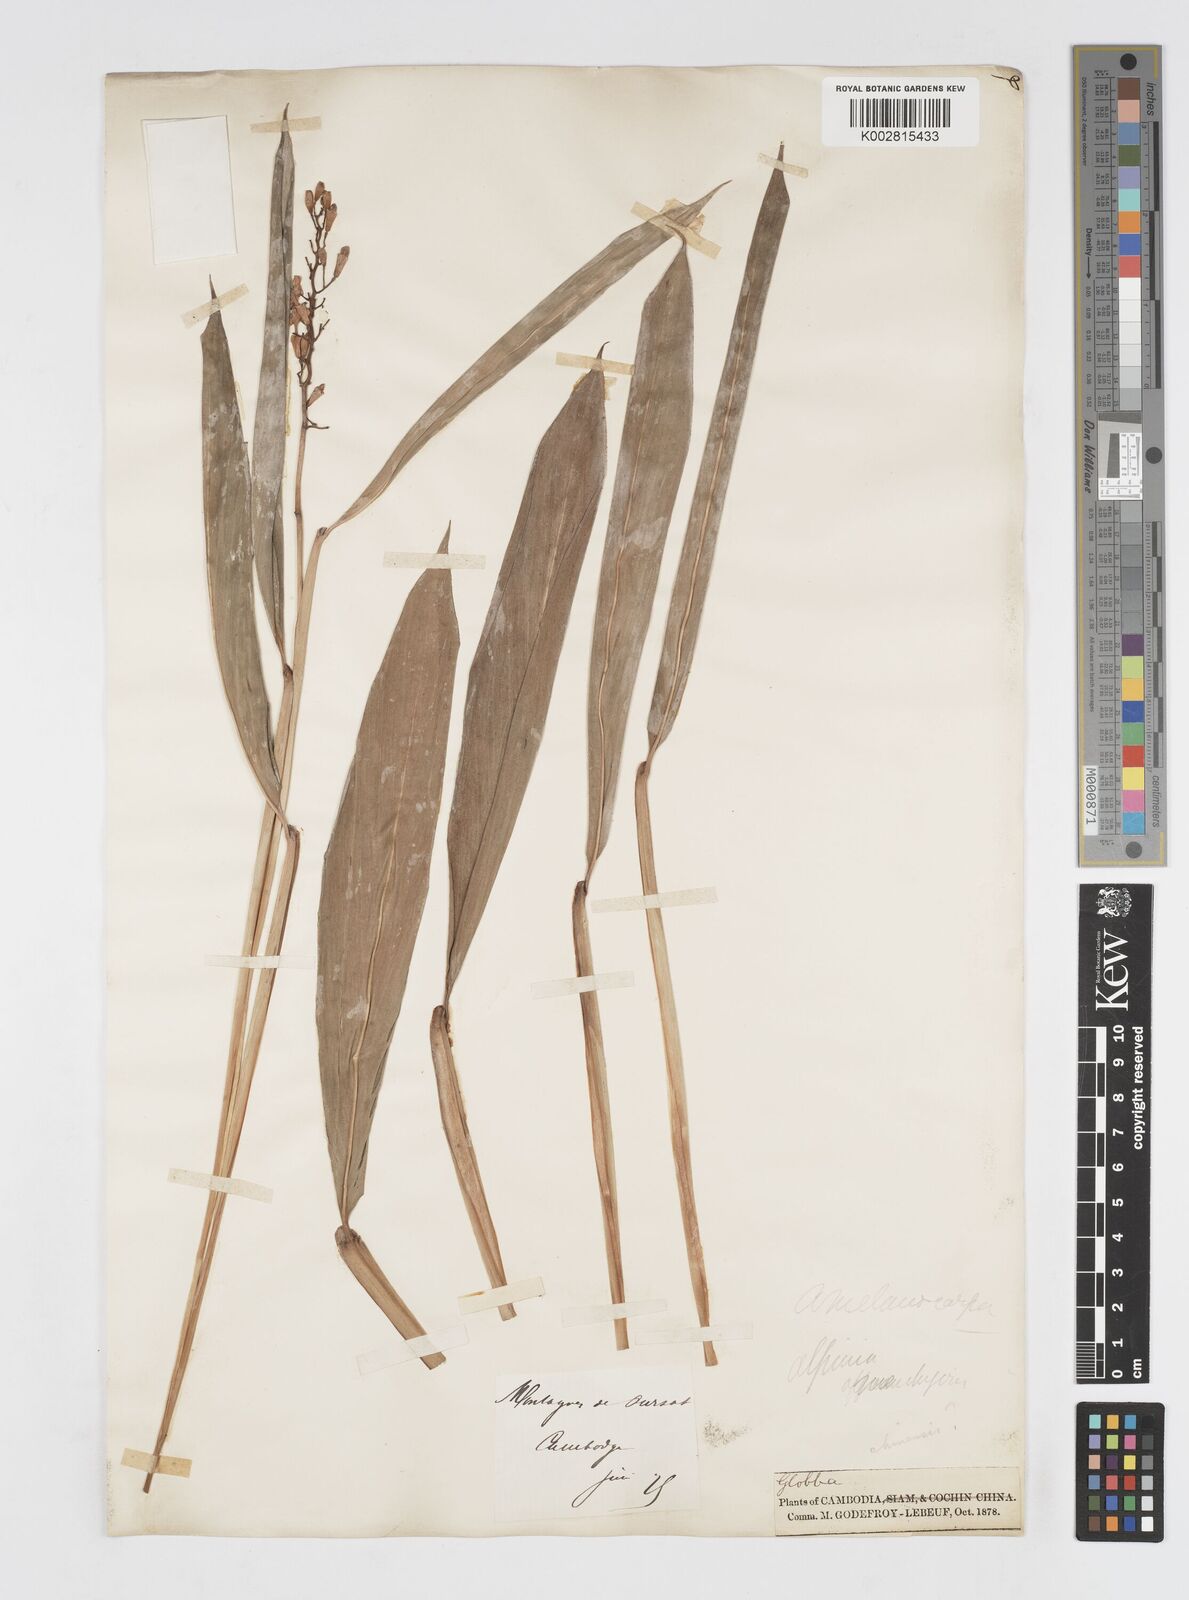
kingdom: Plantae
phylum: Tracheophyta
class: Liliopsida
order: Zingiberales
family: Zingiberaceae
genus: Alpinia
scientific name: Alpinia aquatica
